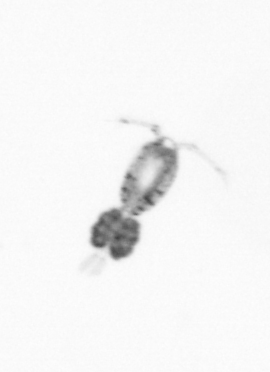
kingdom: Animalia
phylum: Arthropoda
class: Copepoda
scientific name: Copepoda
